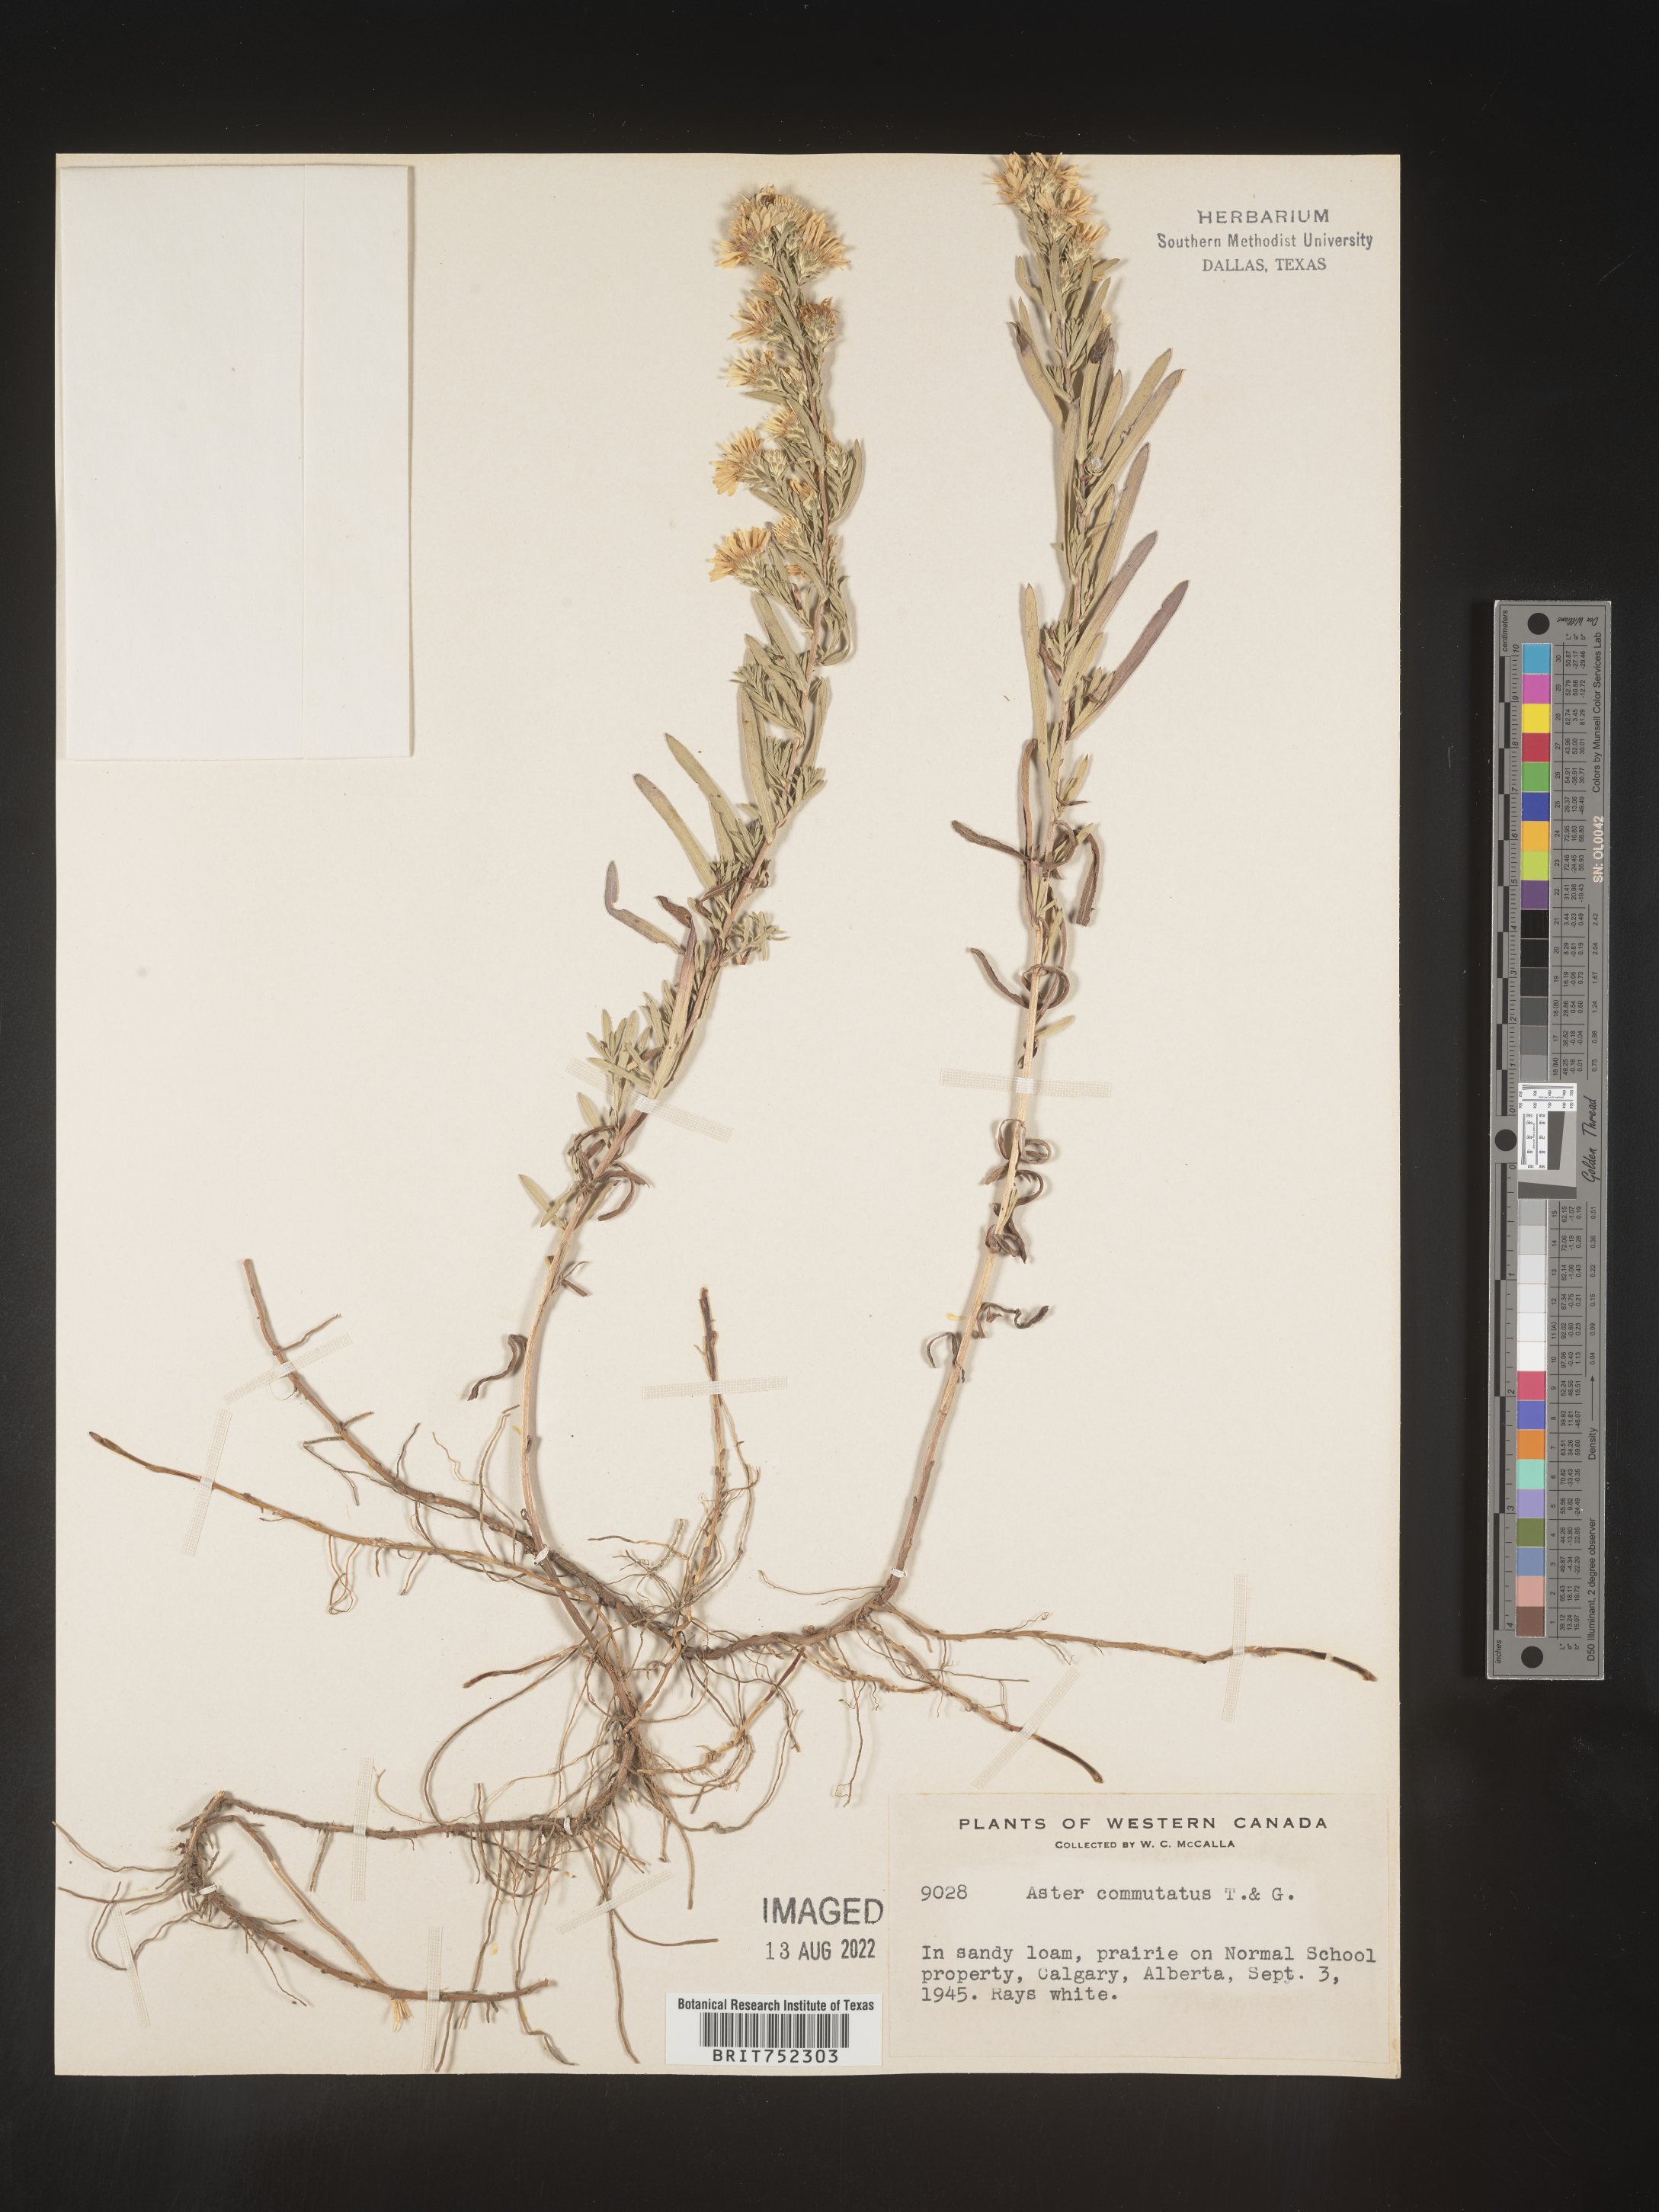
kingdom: Plantae
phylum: Tracheophyta
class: Magnoliopsida
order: Asterales
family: Asteraceae
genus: Symphyotrichum
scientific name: Symphyotrichum falcatum
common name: Creeping white prairie aster
